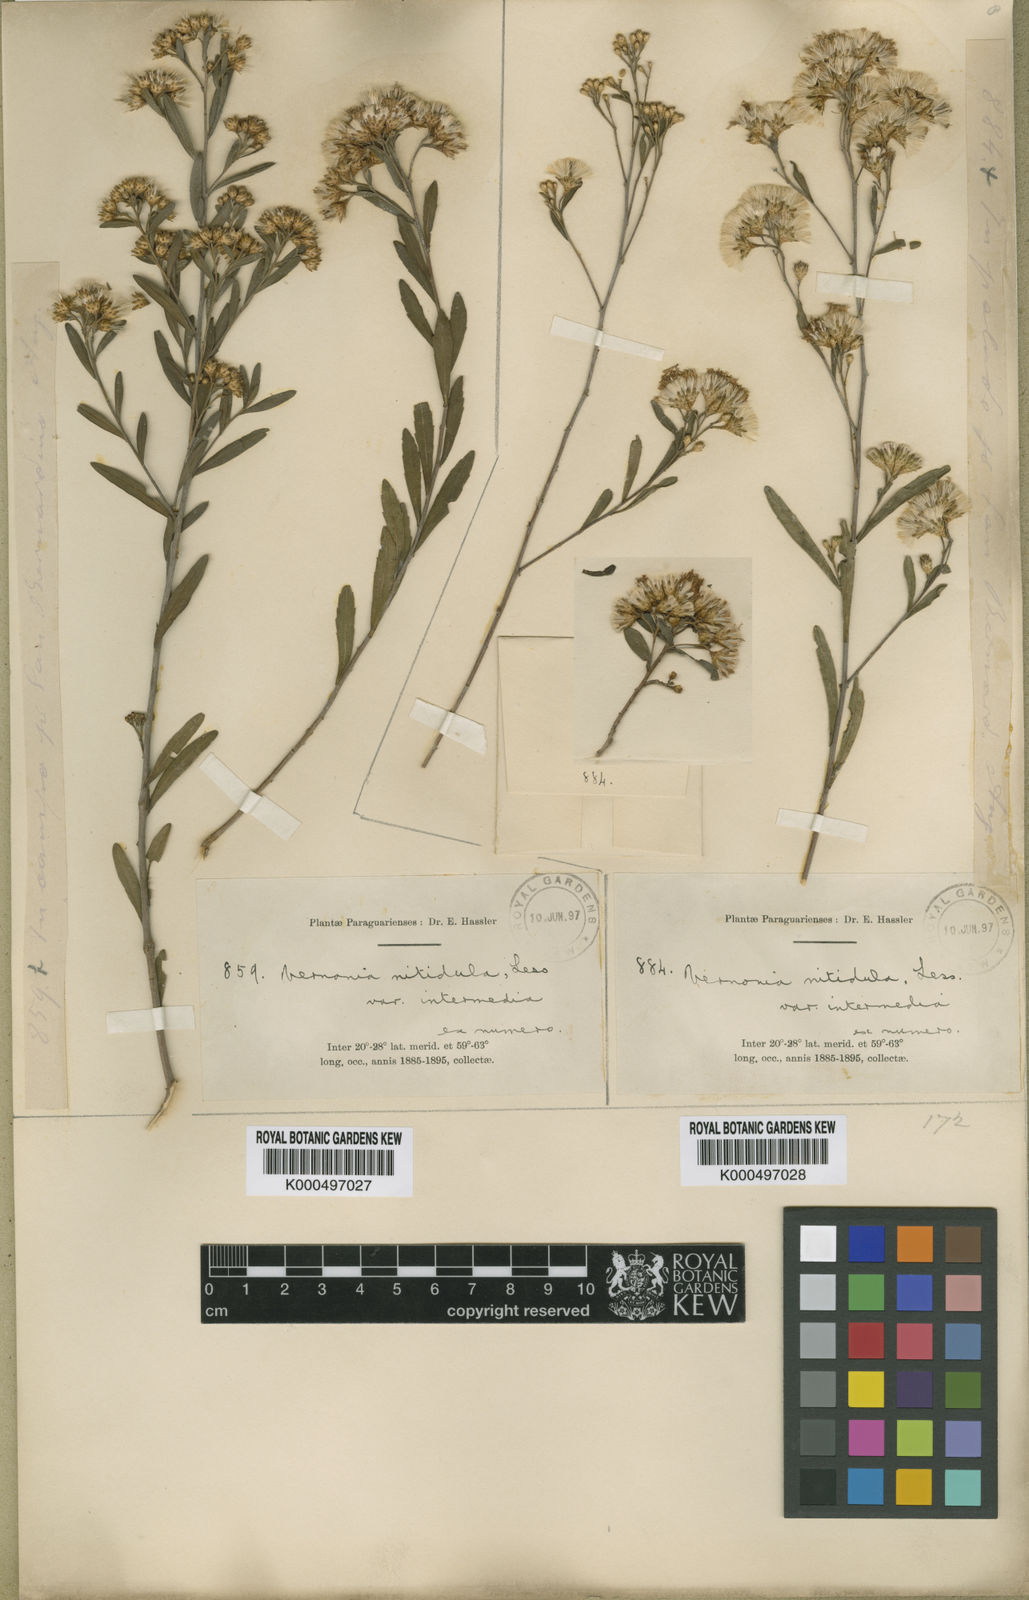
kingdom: Plantae
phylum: Tracheophyta
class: Magnoliopsida
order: Asterales
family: Asteraceae
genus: Vernonanthura
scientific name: Vernonanthura montevidensis
